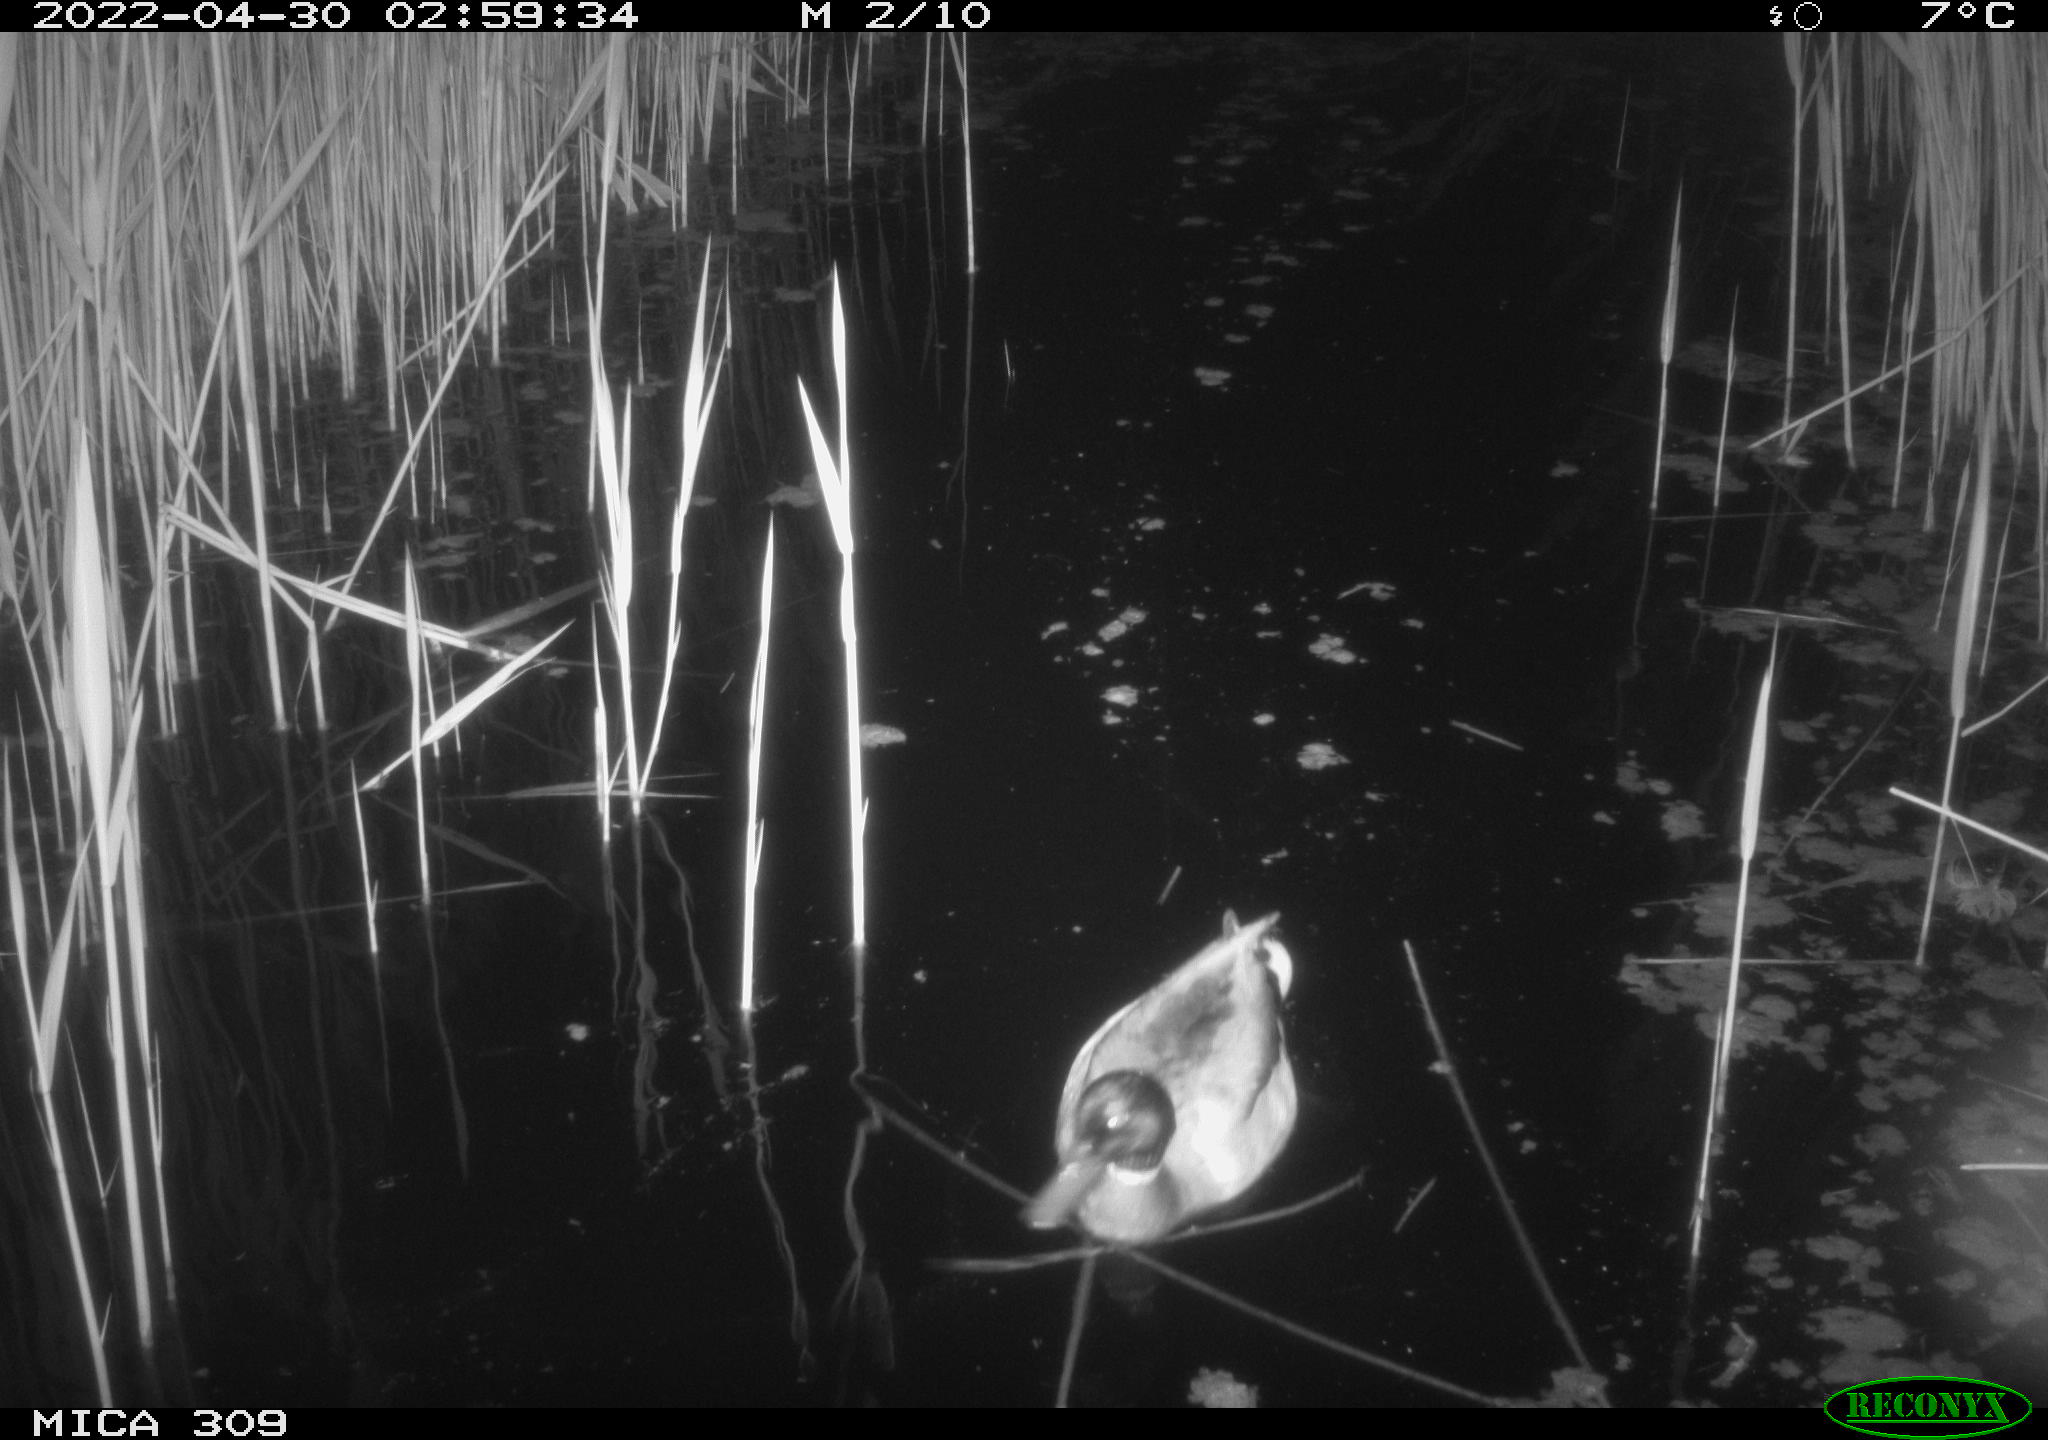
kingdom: Animalia
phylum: Chordata
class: Aves
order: Anseriformes
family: Anatidae
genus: Mareca
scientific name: Mareca strepera
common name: Gadwall
